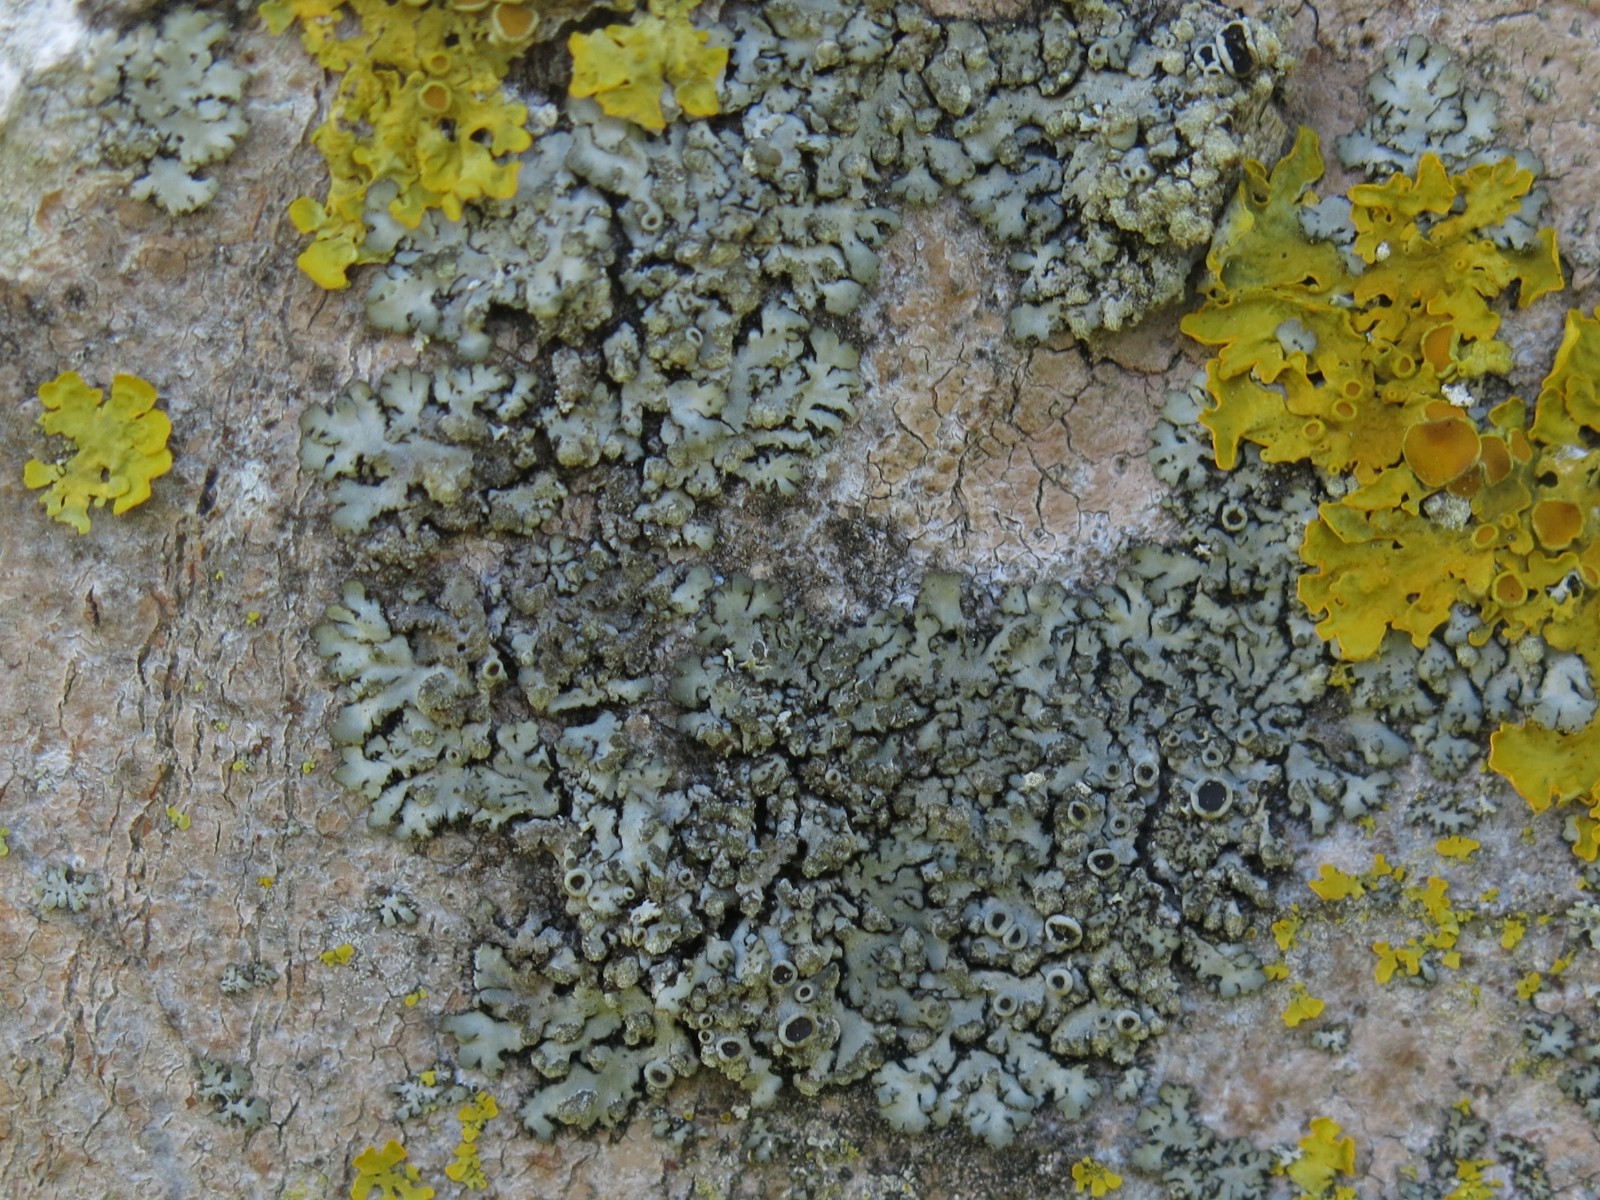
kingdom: Fungi
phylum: Ascomycota
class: Lecanoromycetes
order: Caliciales
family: Physciaceae
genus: Phaeophyscia
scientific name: Phaeophyscia orbicularis
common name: grågrøn rosetlav
